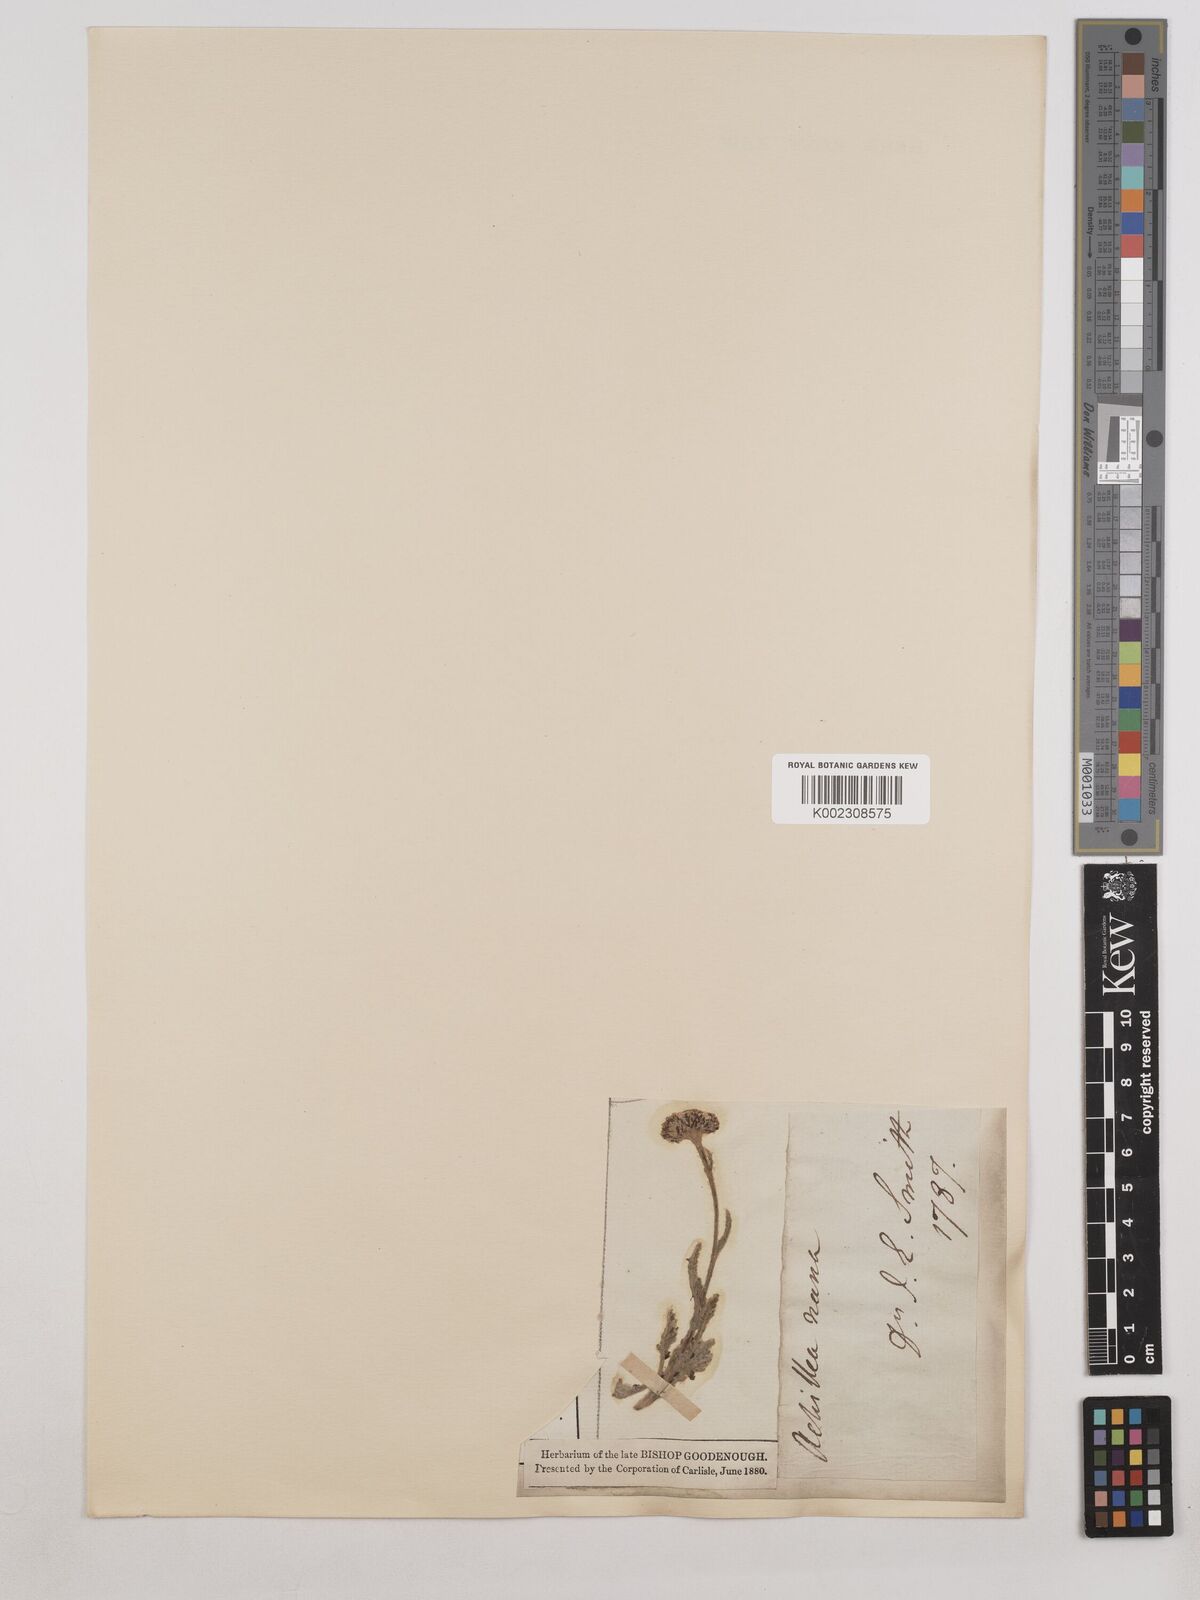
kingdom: Plantae
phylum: Tracheophyta
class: Magnoliopsida
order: Asterales
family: Asteraceae
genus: Achillea
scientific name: Achillea nana
